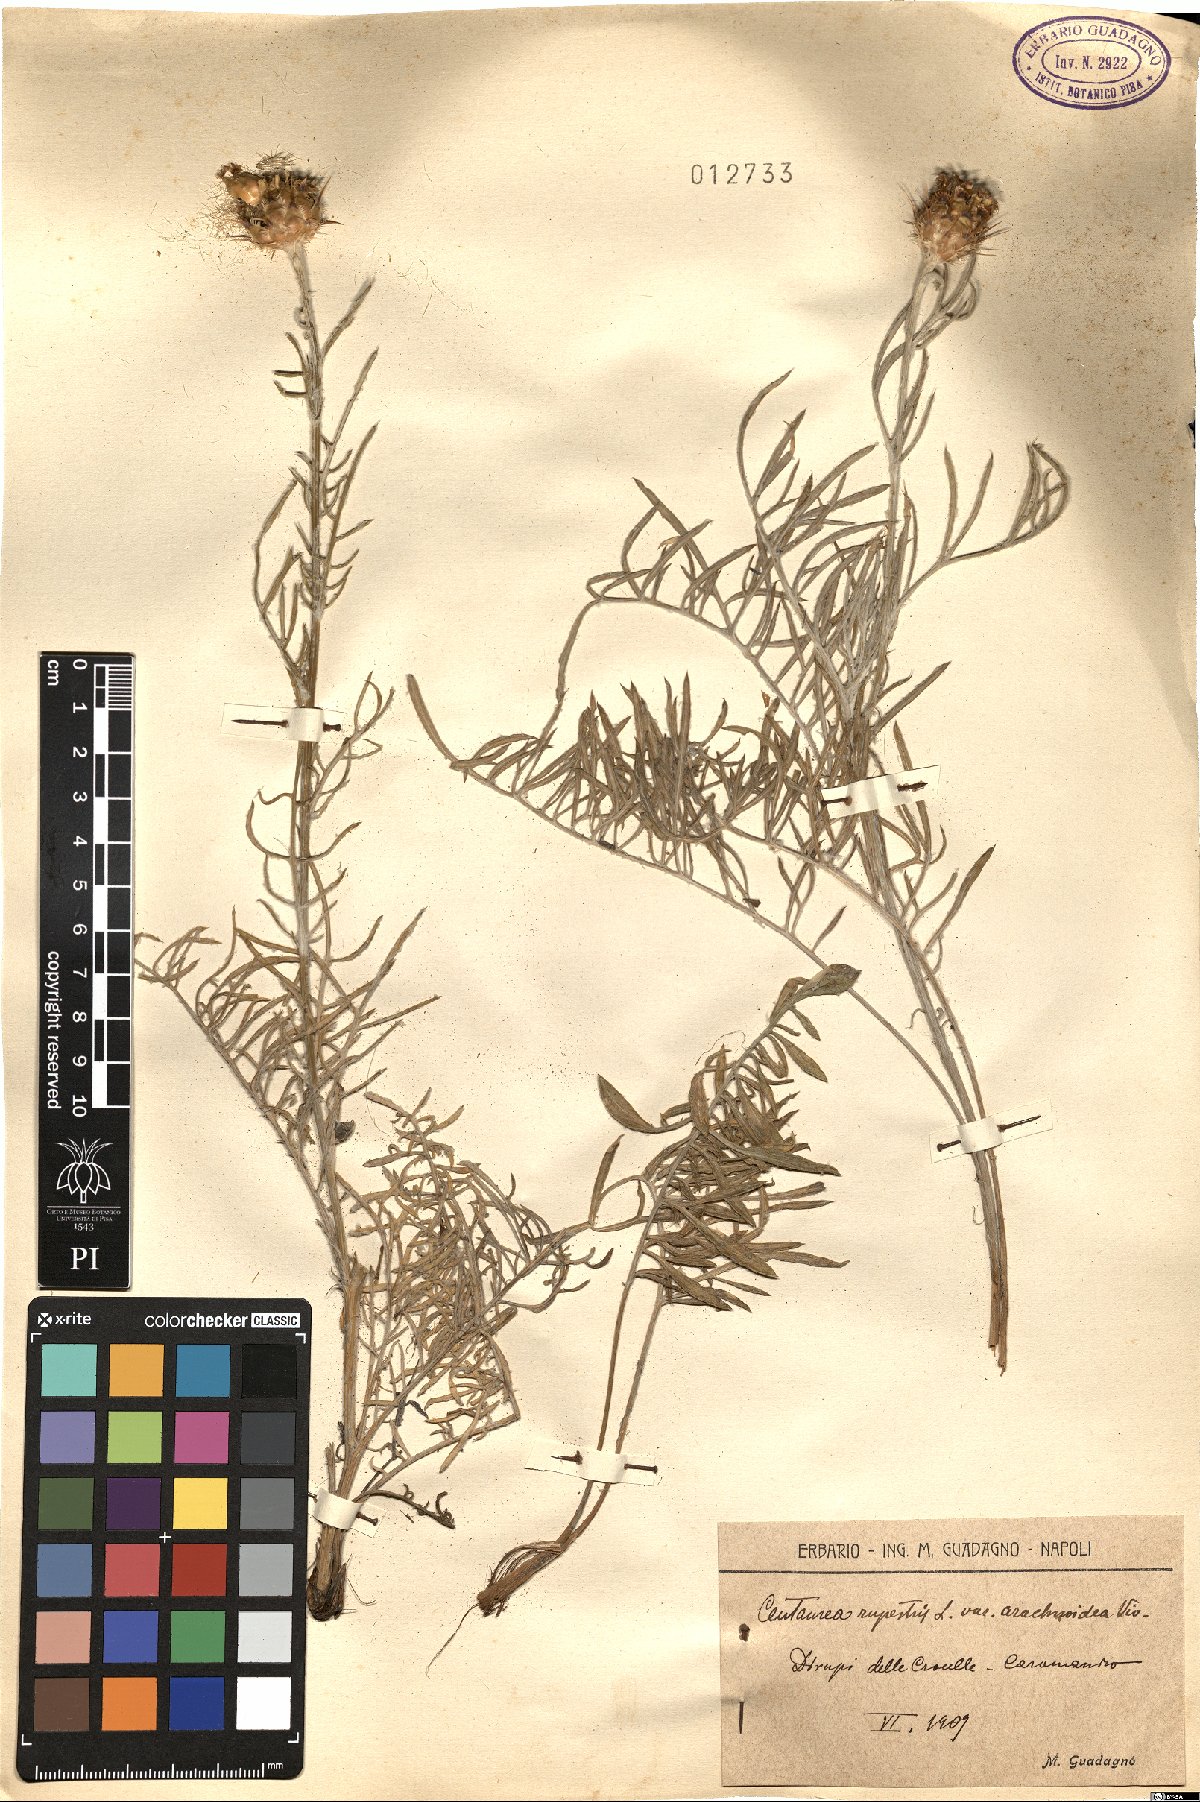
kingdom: Plantae
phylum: Tracheophyta
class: Magnoliopsida
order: Asterales
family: Asteraceae
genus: Centaurea
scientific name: Centaurea rupestris
